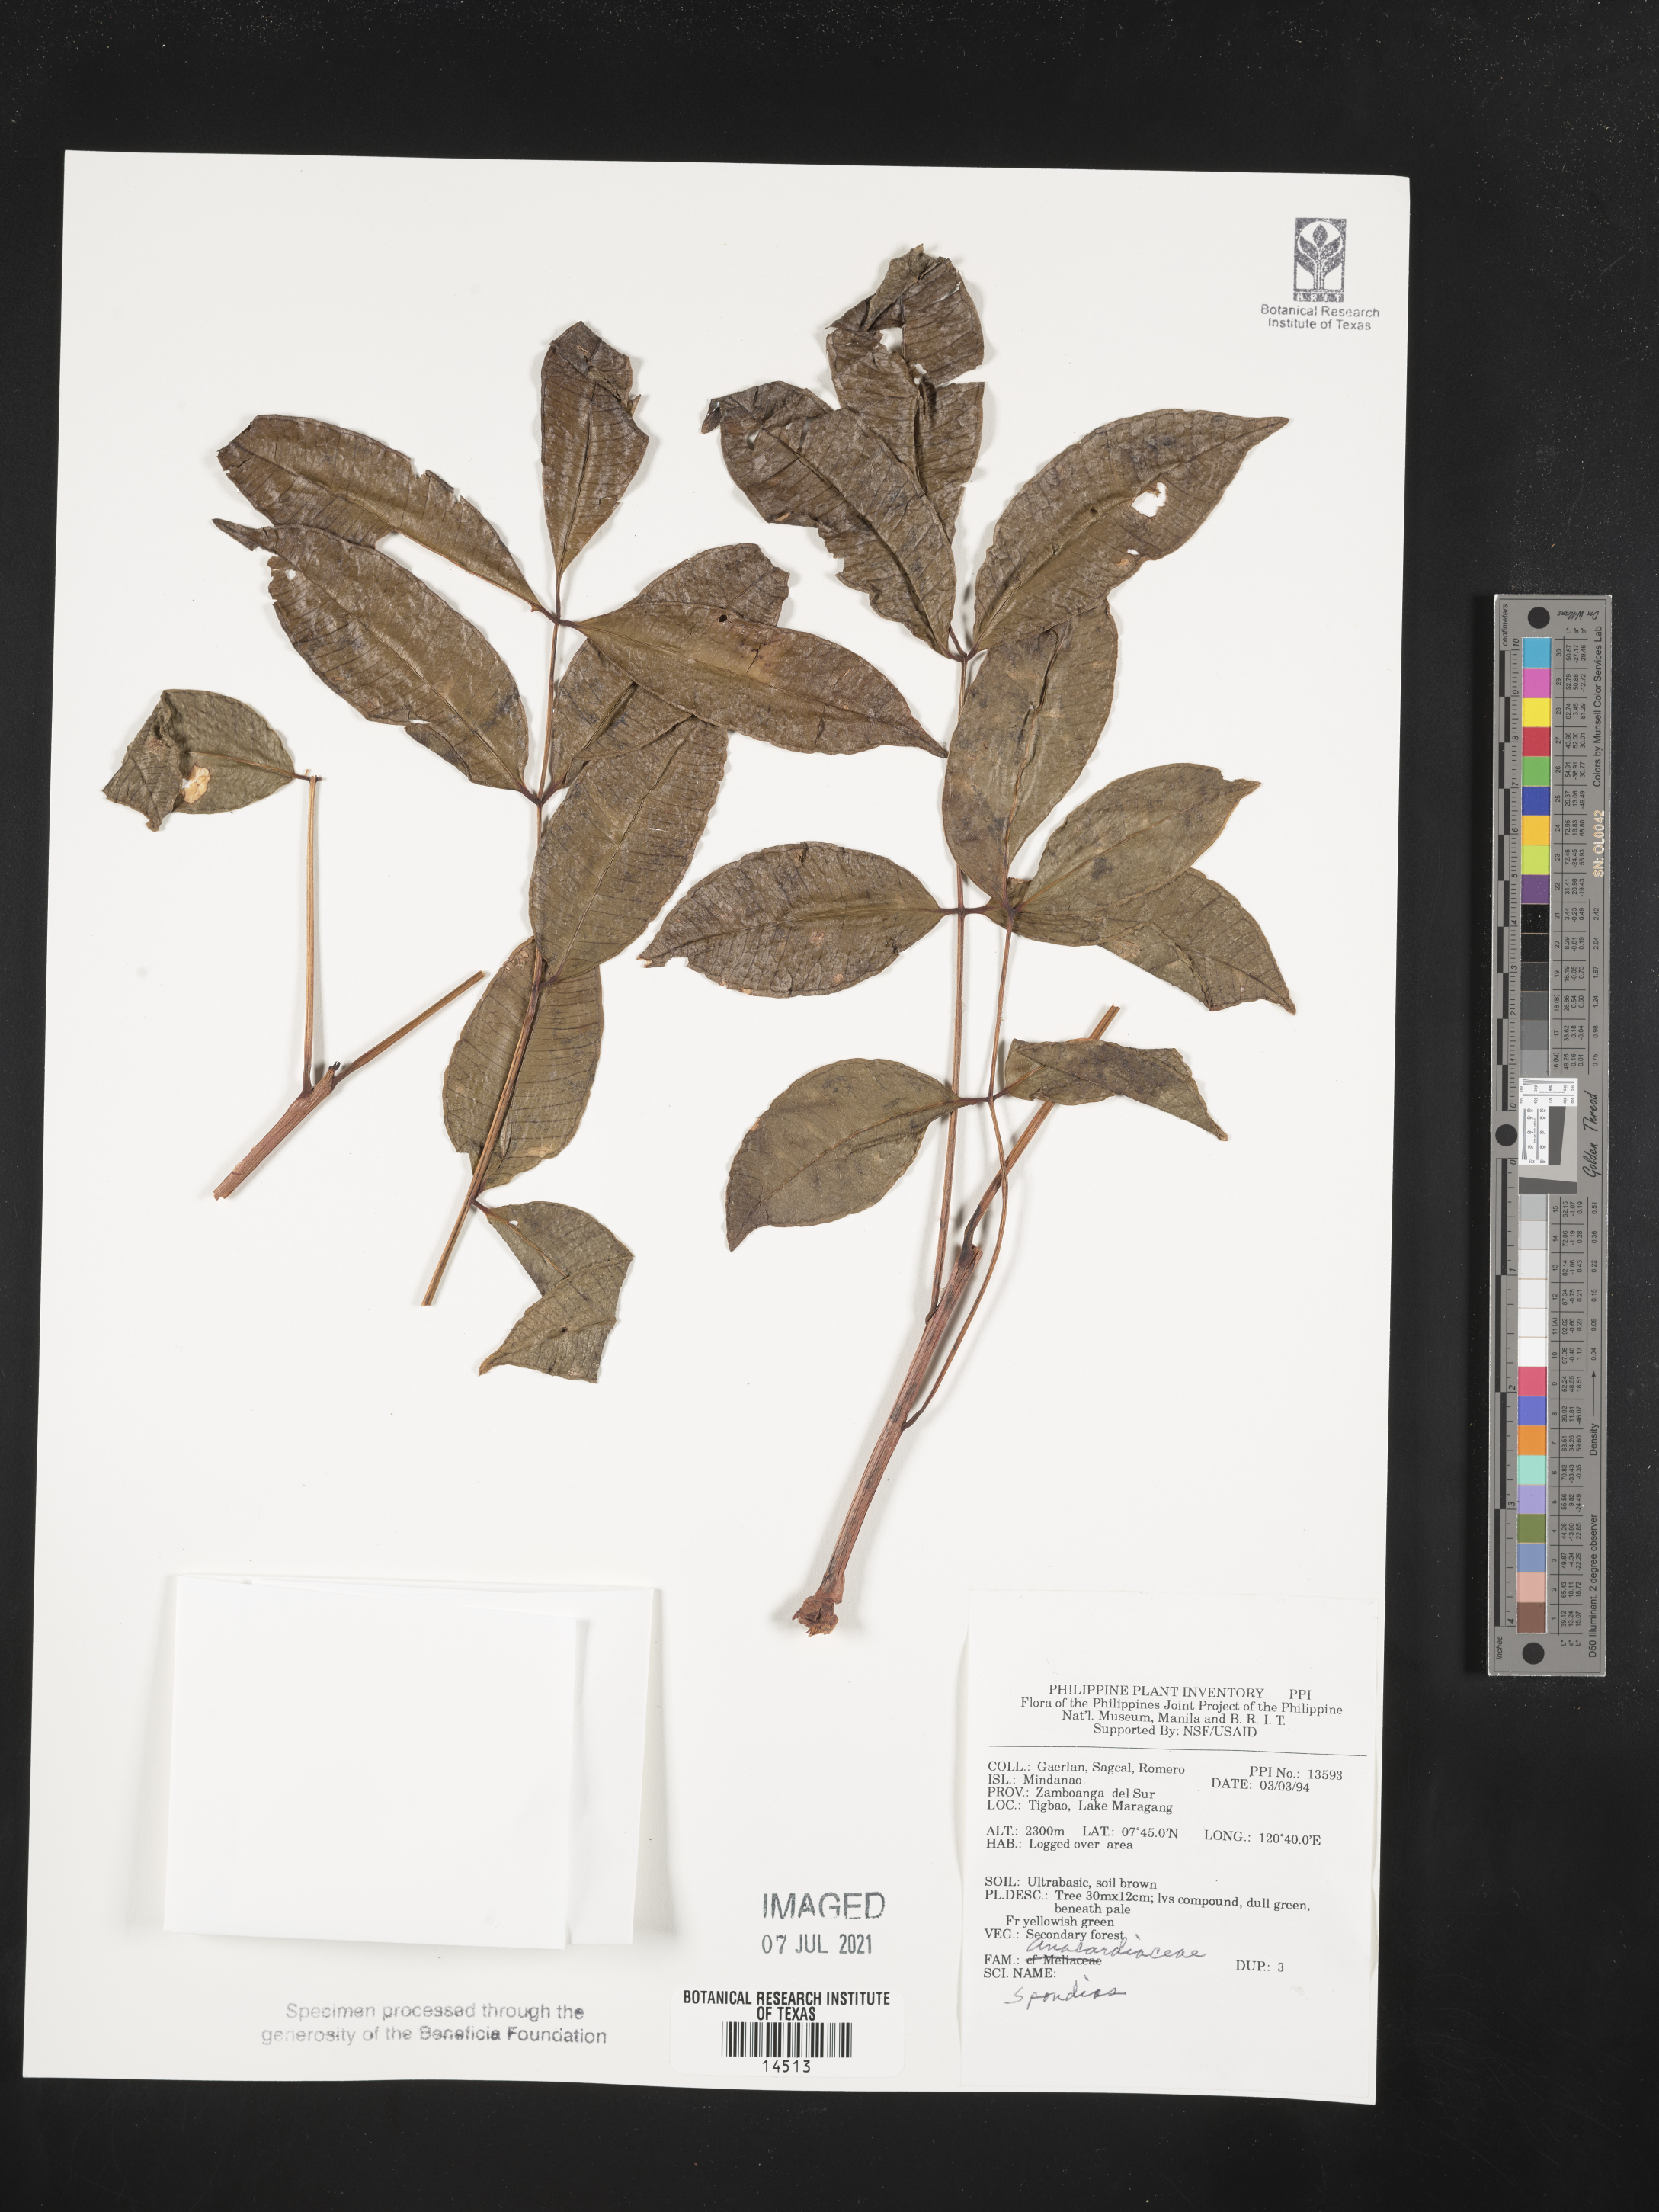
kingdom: Plantae
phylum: Tracheophyta
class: Magnoliopsida
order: Sapindales
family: Anacardiaceae
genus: Spondias
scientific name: Spondias
